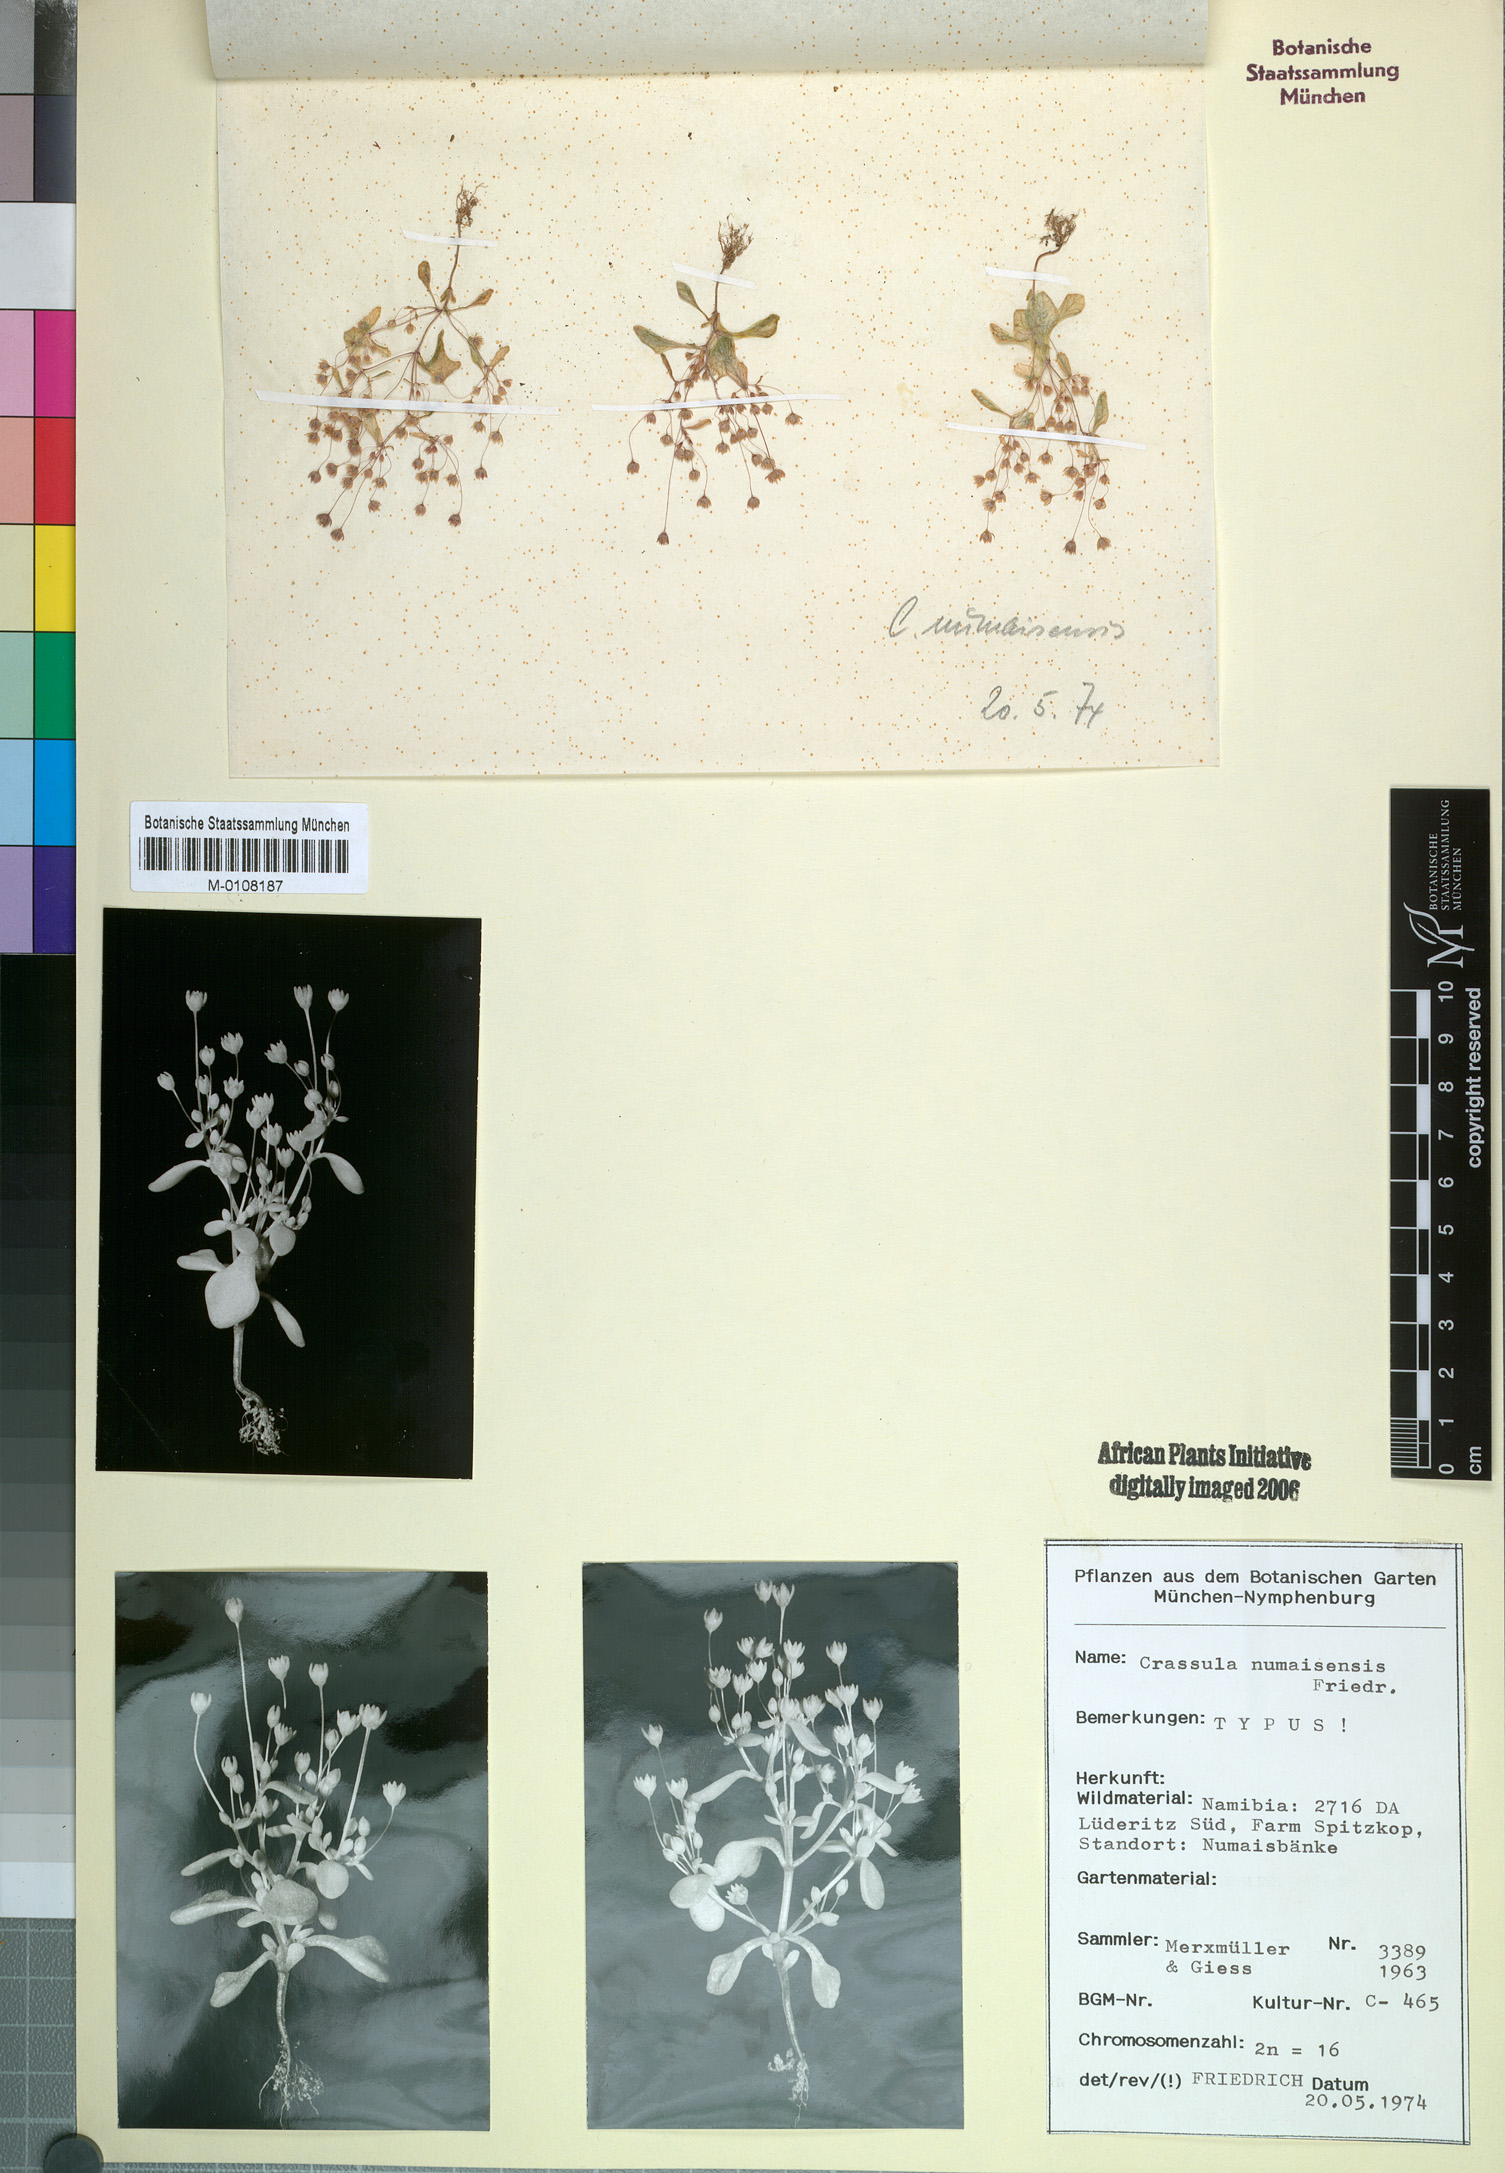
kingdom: Plantae
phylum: Tracheophyta
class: Magnoliopsida
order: Saxifragales
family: Crassulaceae
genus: Crassula
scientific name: Crassula numaisensis
